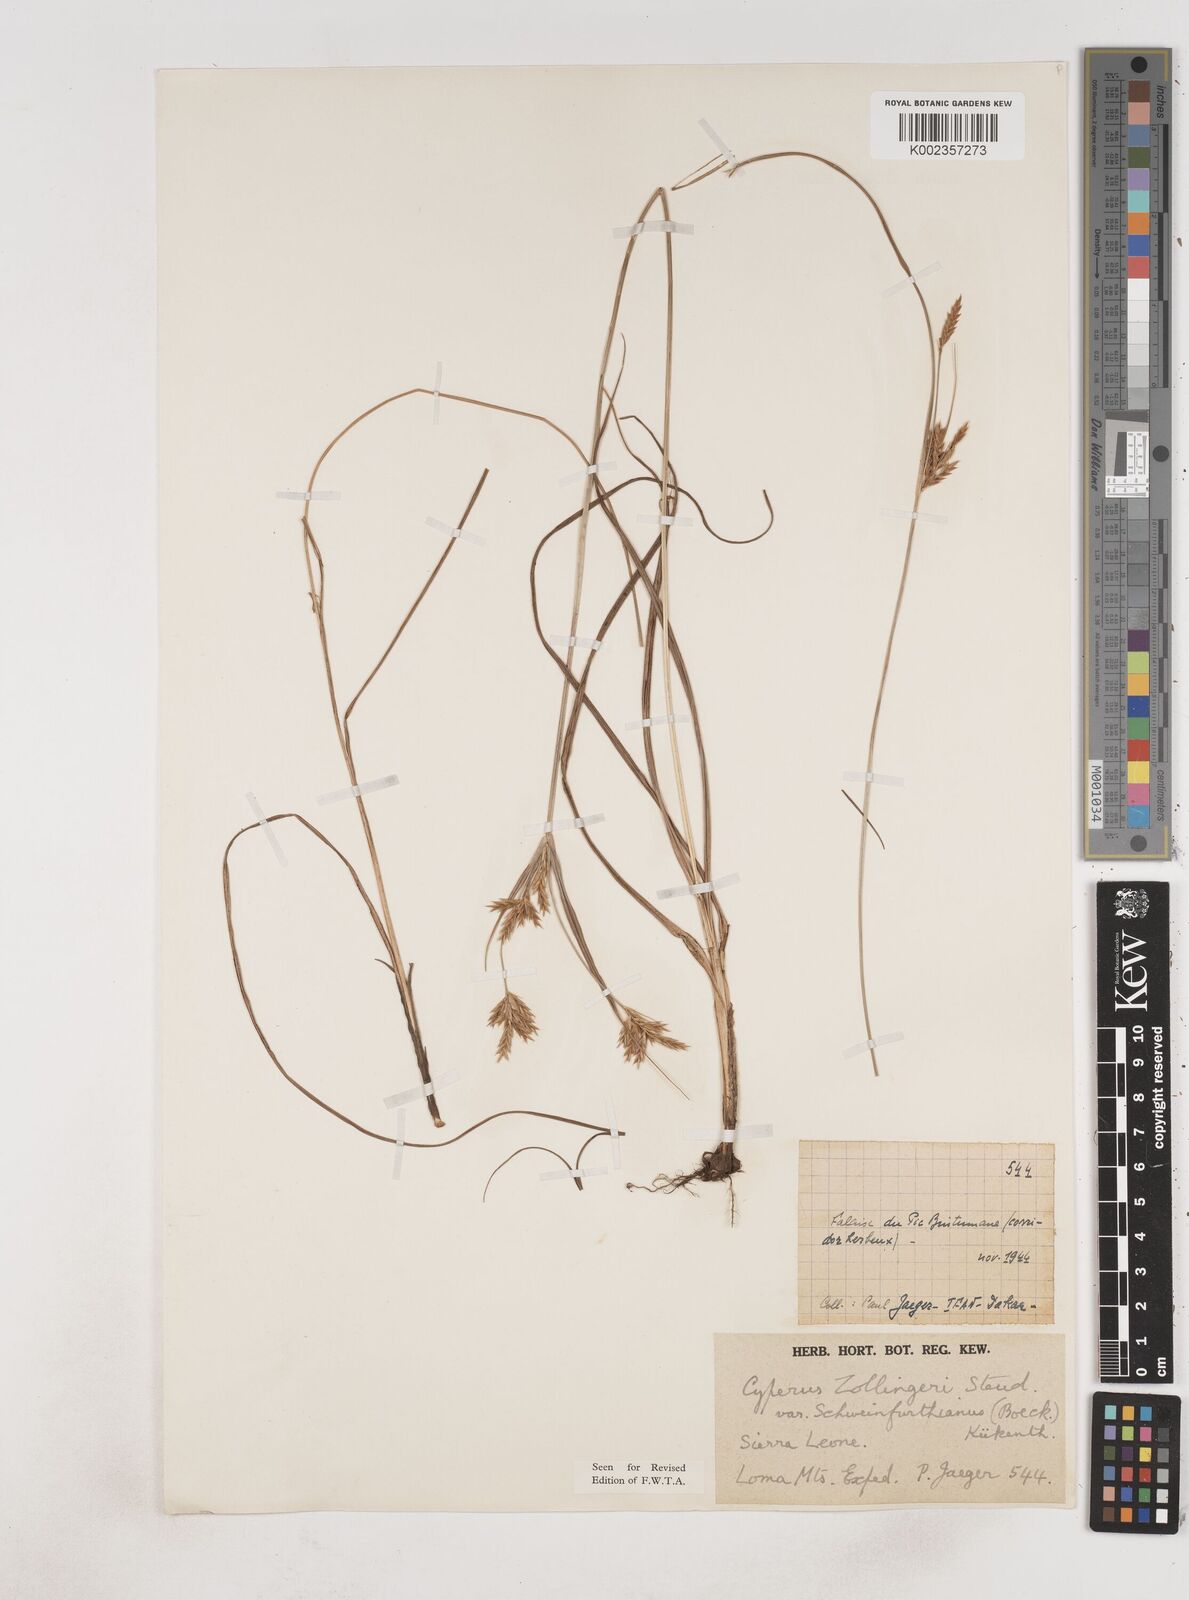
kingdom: Plantae
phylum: Tracheophyta
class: Liliopsida
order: Poales
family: Cyperaceae
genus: Cyperus
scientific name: Cyperus
